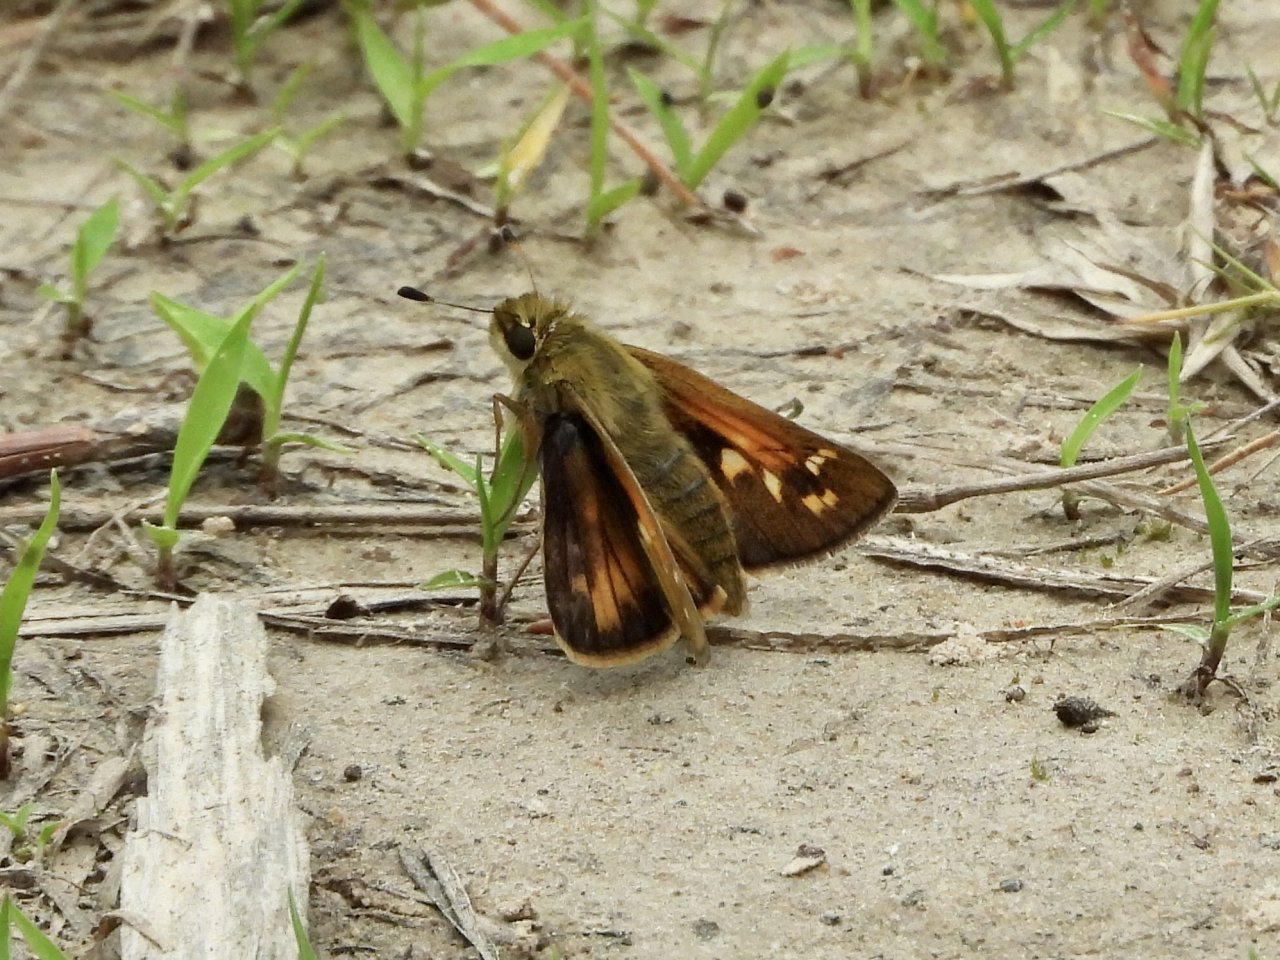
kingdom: Animalia
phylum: Arthropoda
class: Insecta
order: Lepidoptera
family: Hesperiidae
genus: Polites
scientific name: Polites coras
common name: Peck's Skipper
